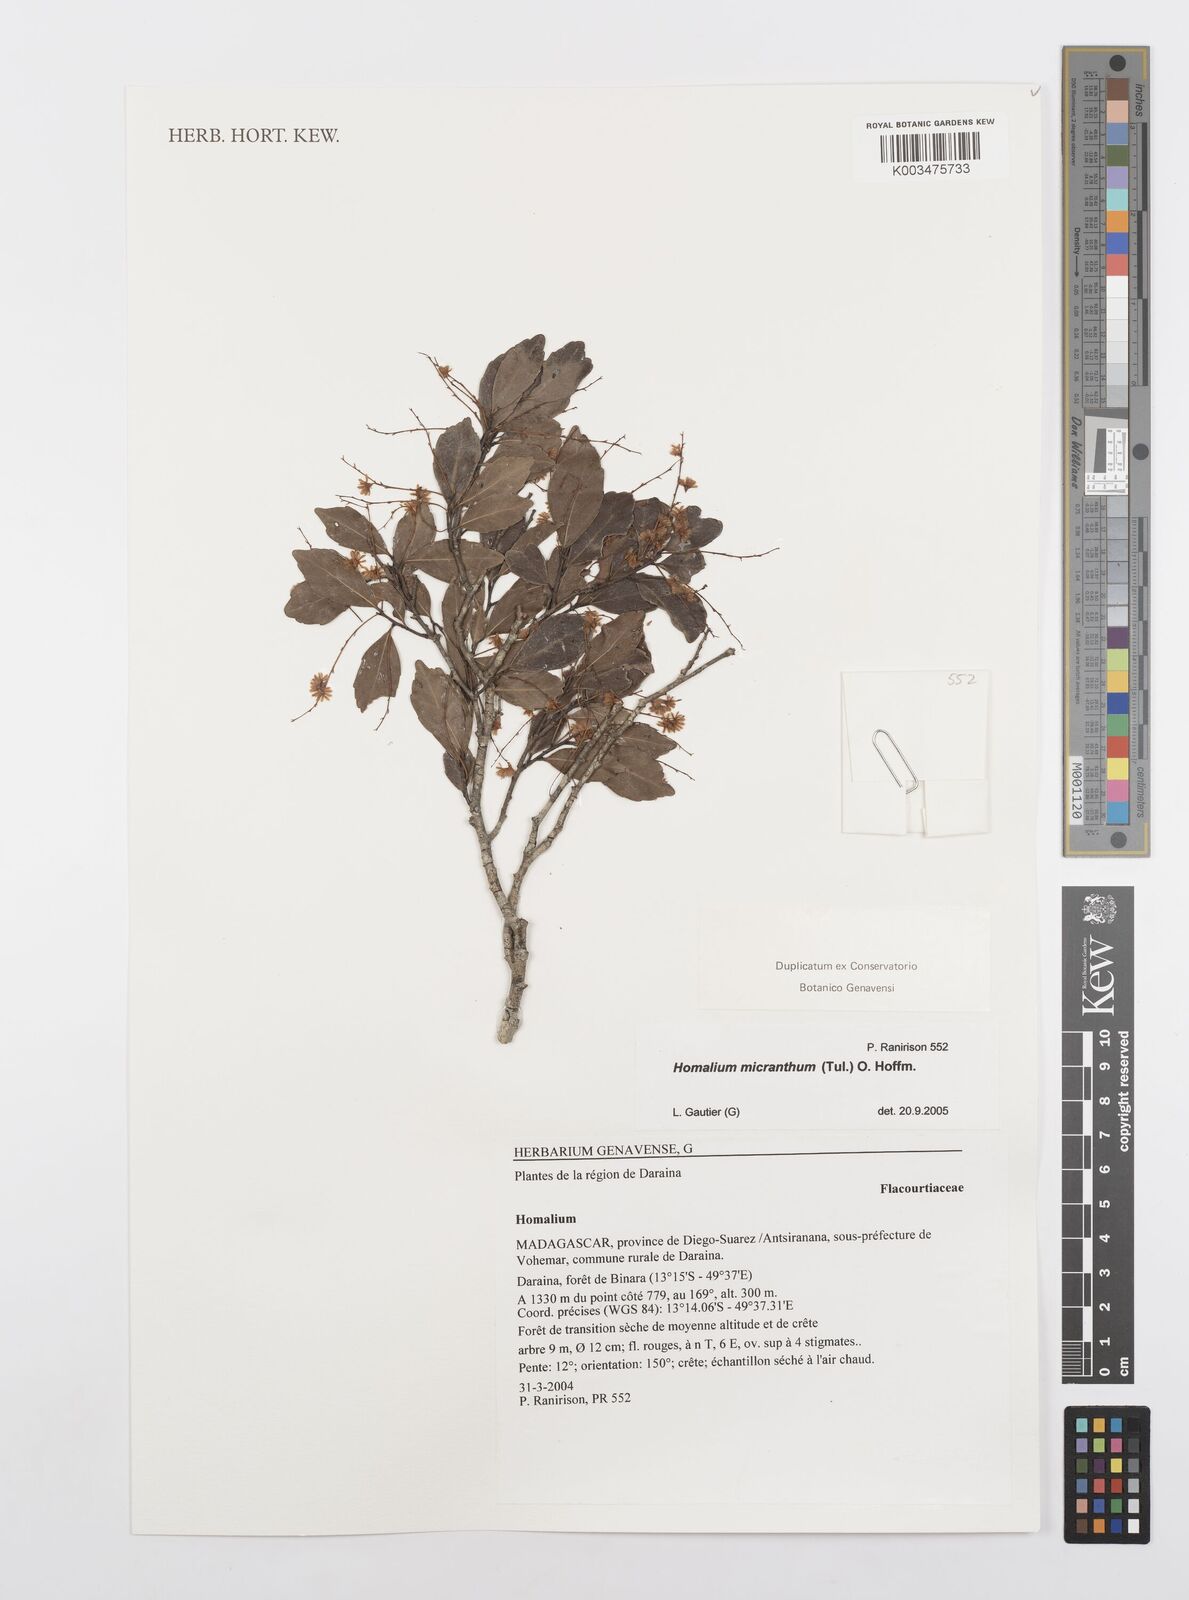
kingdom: Plantae
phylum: Tracheophyta
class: Magnoliopsida
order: Malpighiales
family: Salicaceae
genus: Homalium
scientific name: Homalium micranthum
